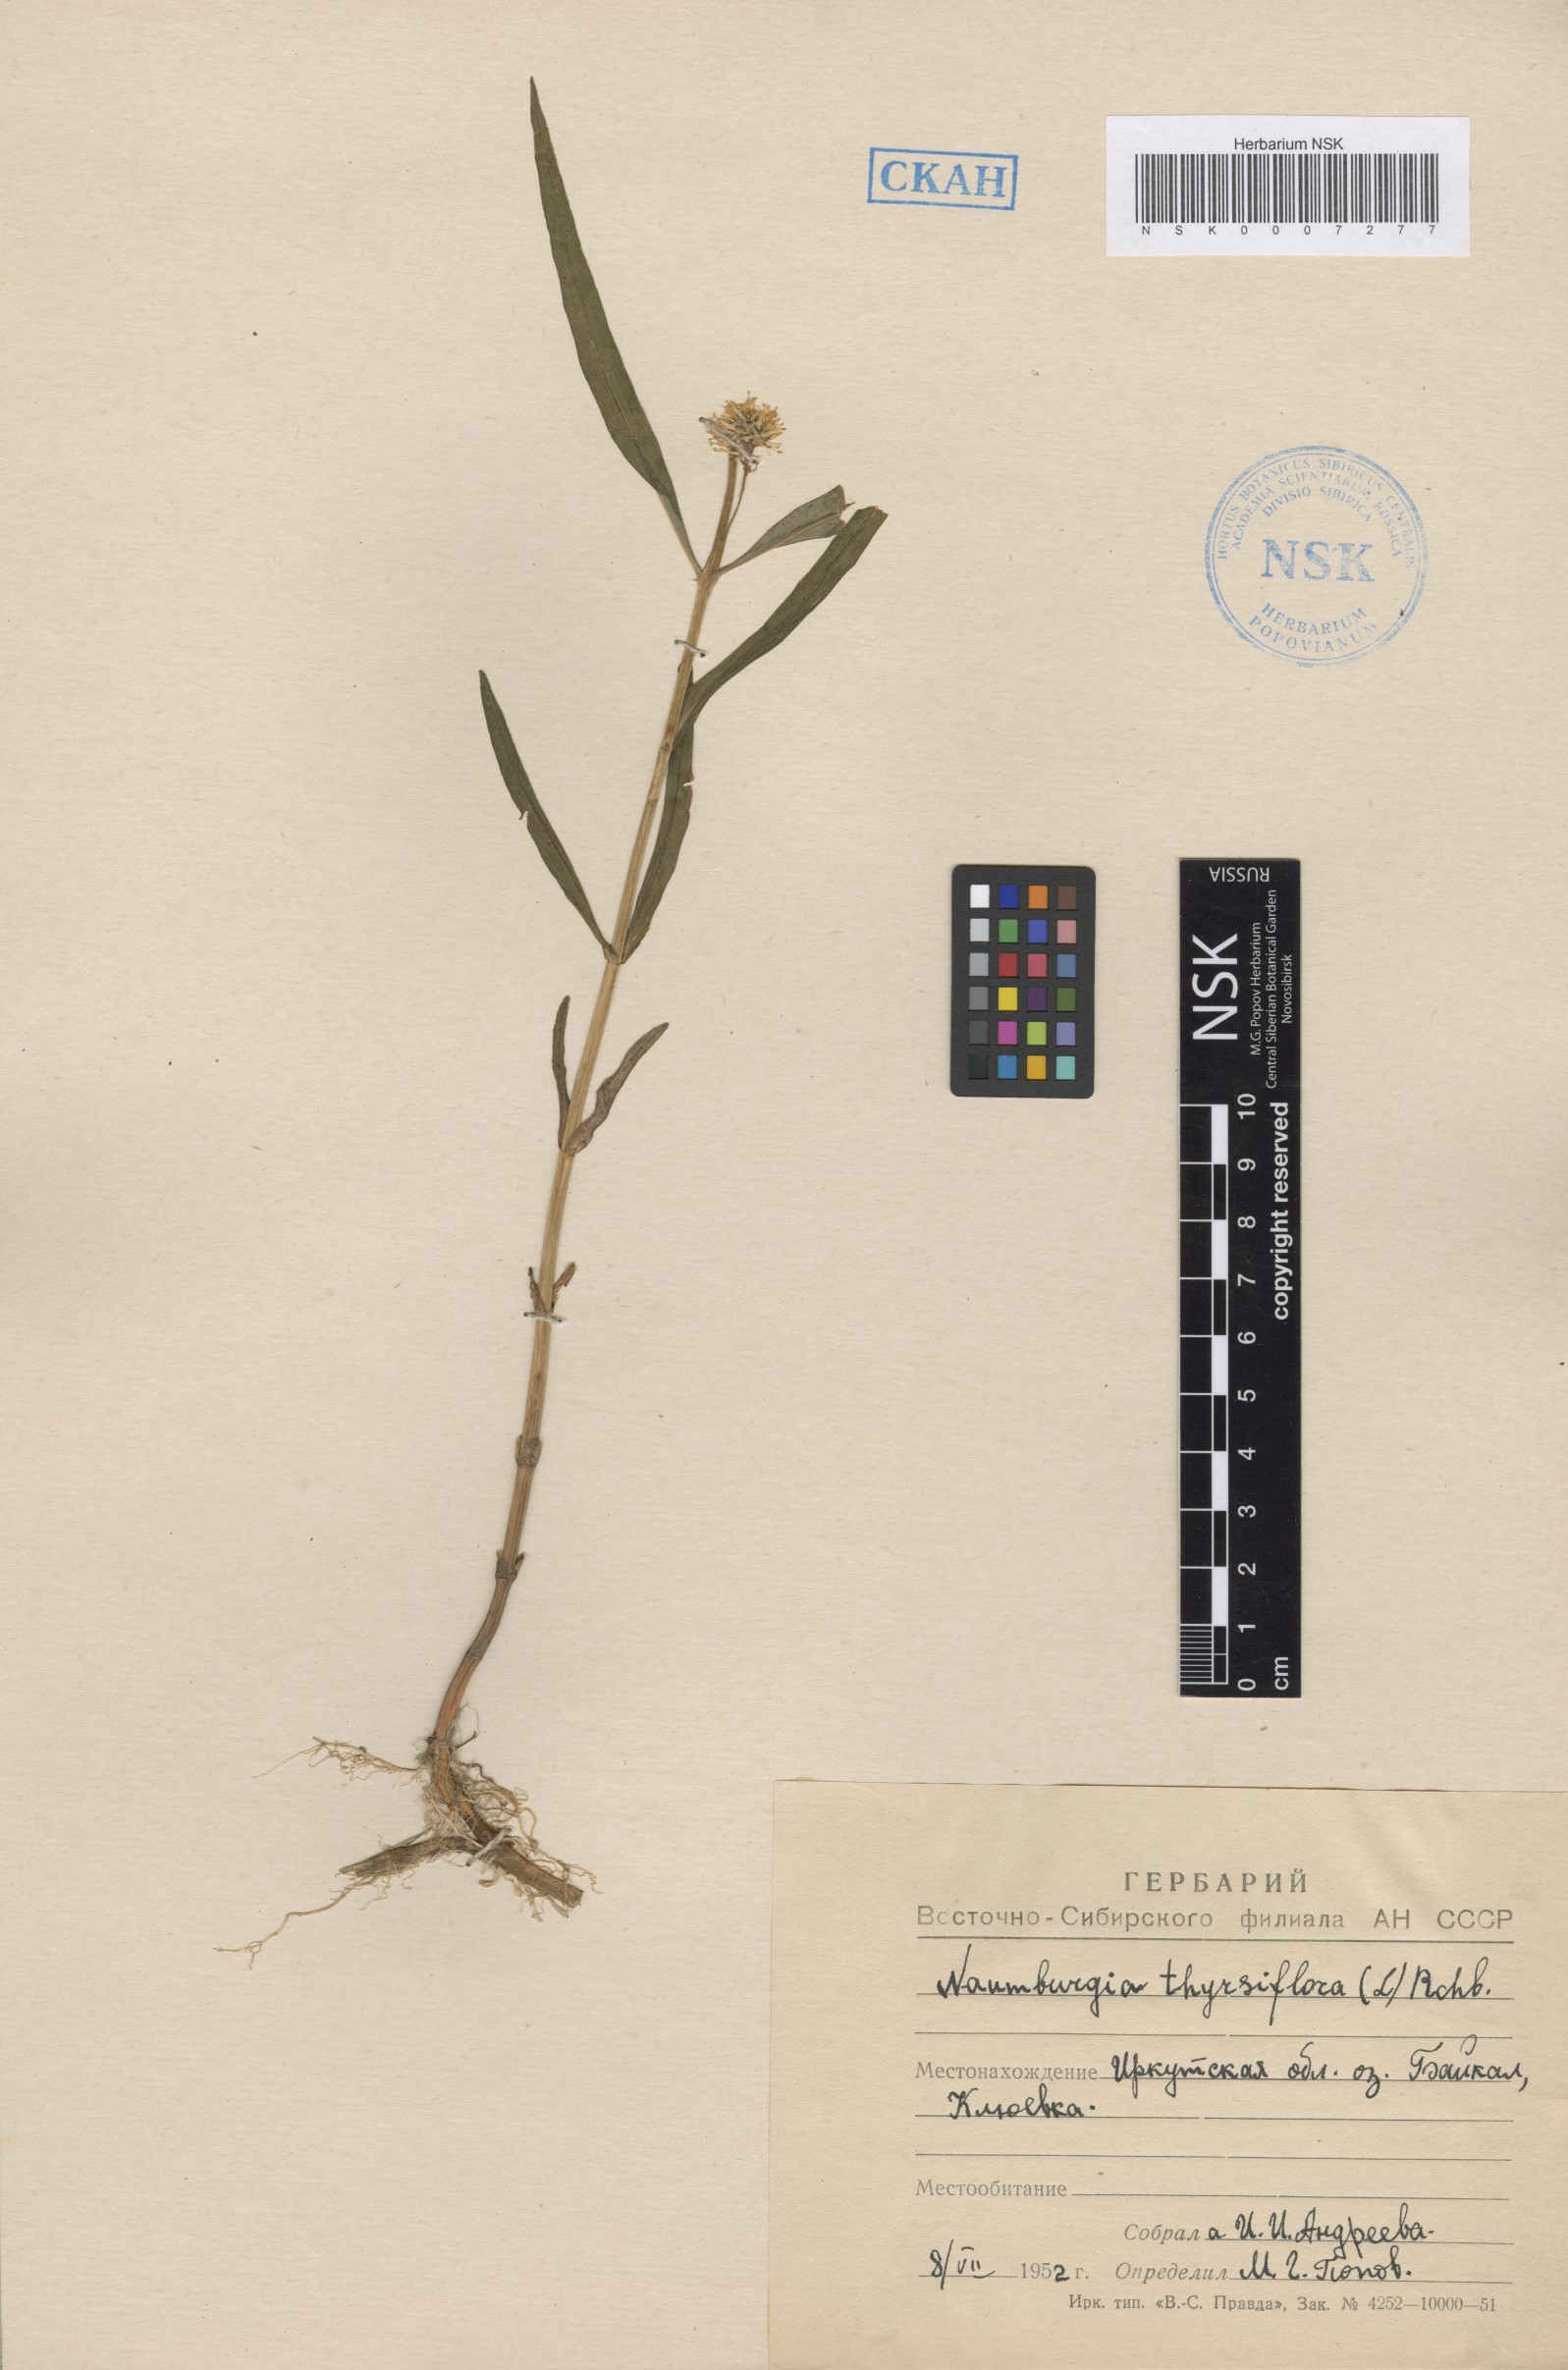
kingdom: Plantae
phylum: Tracheophyta
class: Magnoliopsida
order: Ericales
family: Primulaceae
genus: Lysimachia
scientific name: Lysimachia thyrsiflora
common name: Tufted loosestrife
